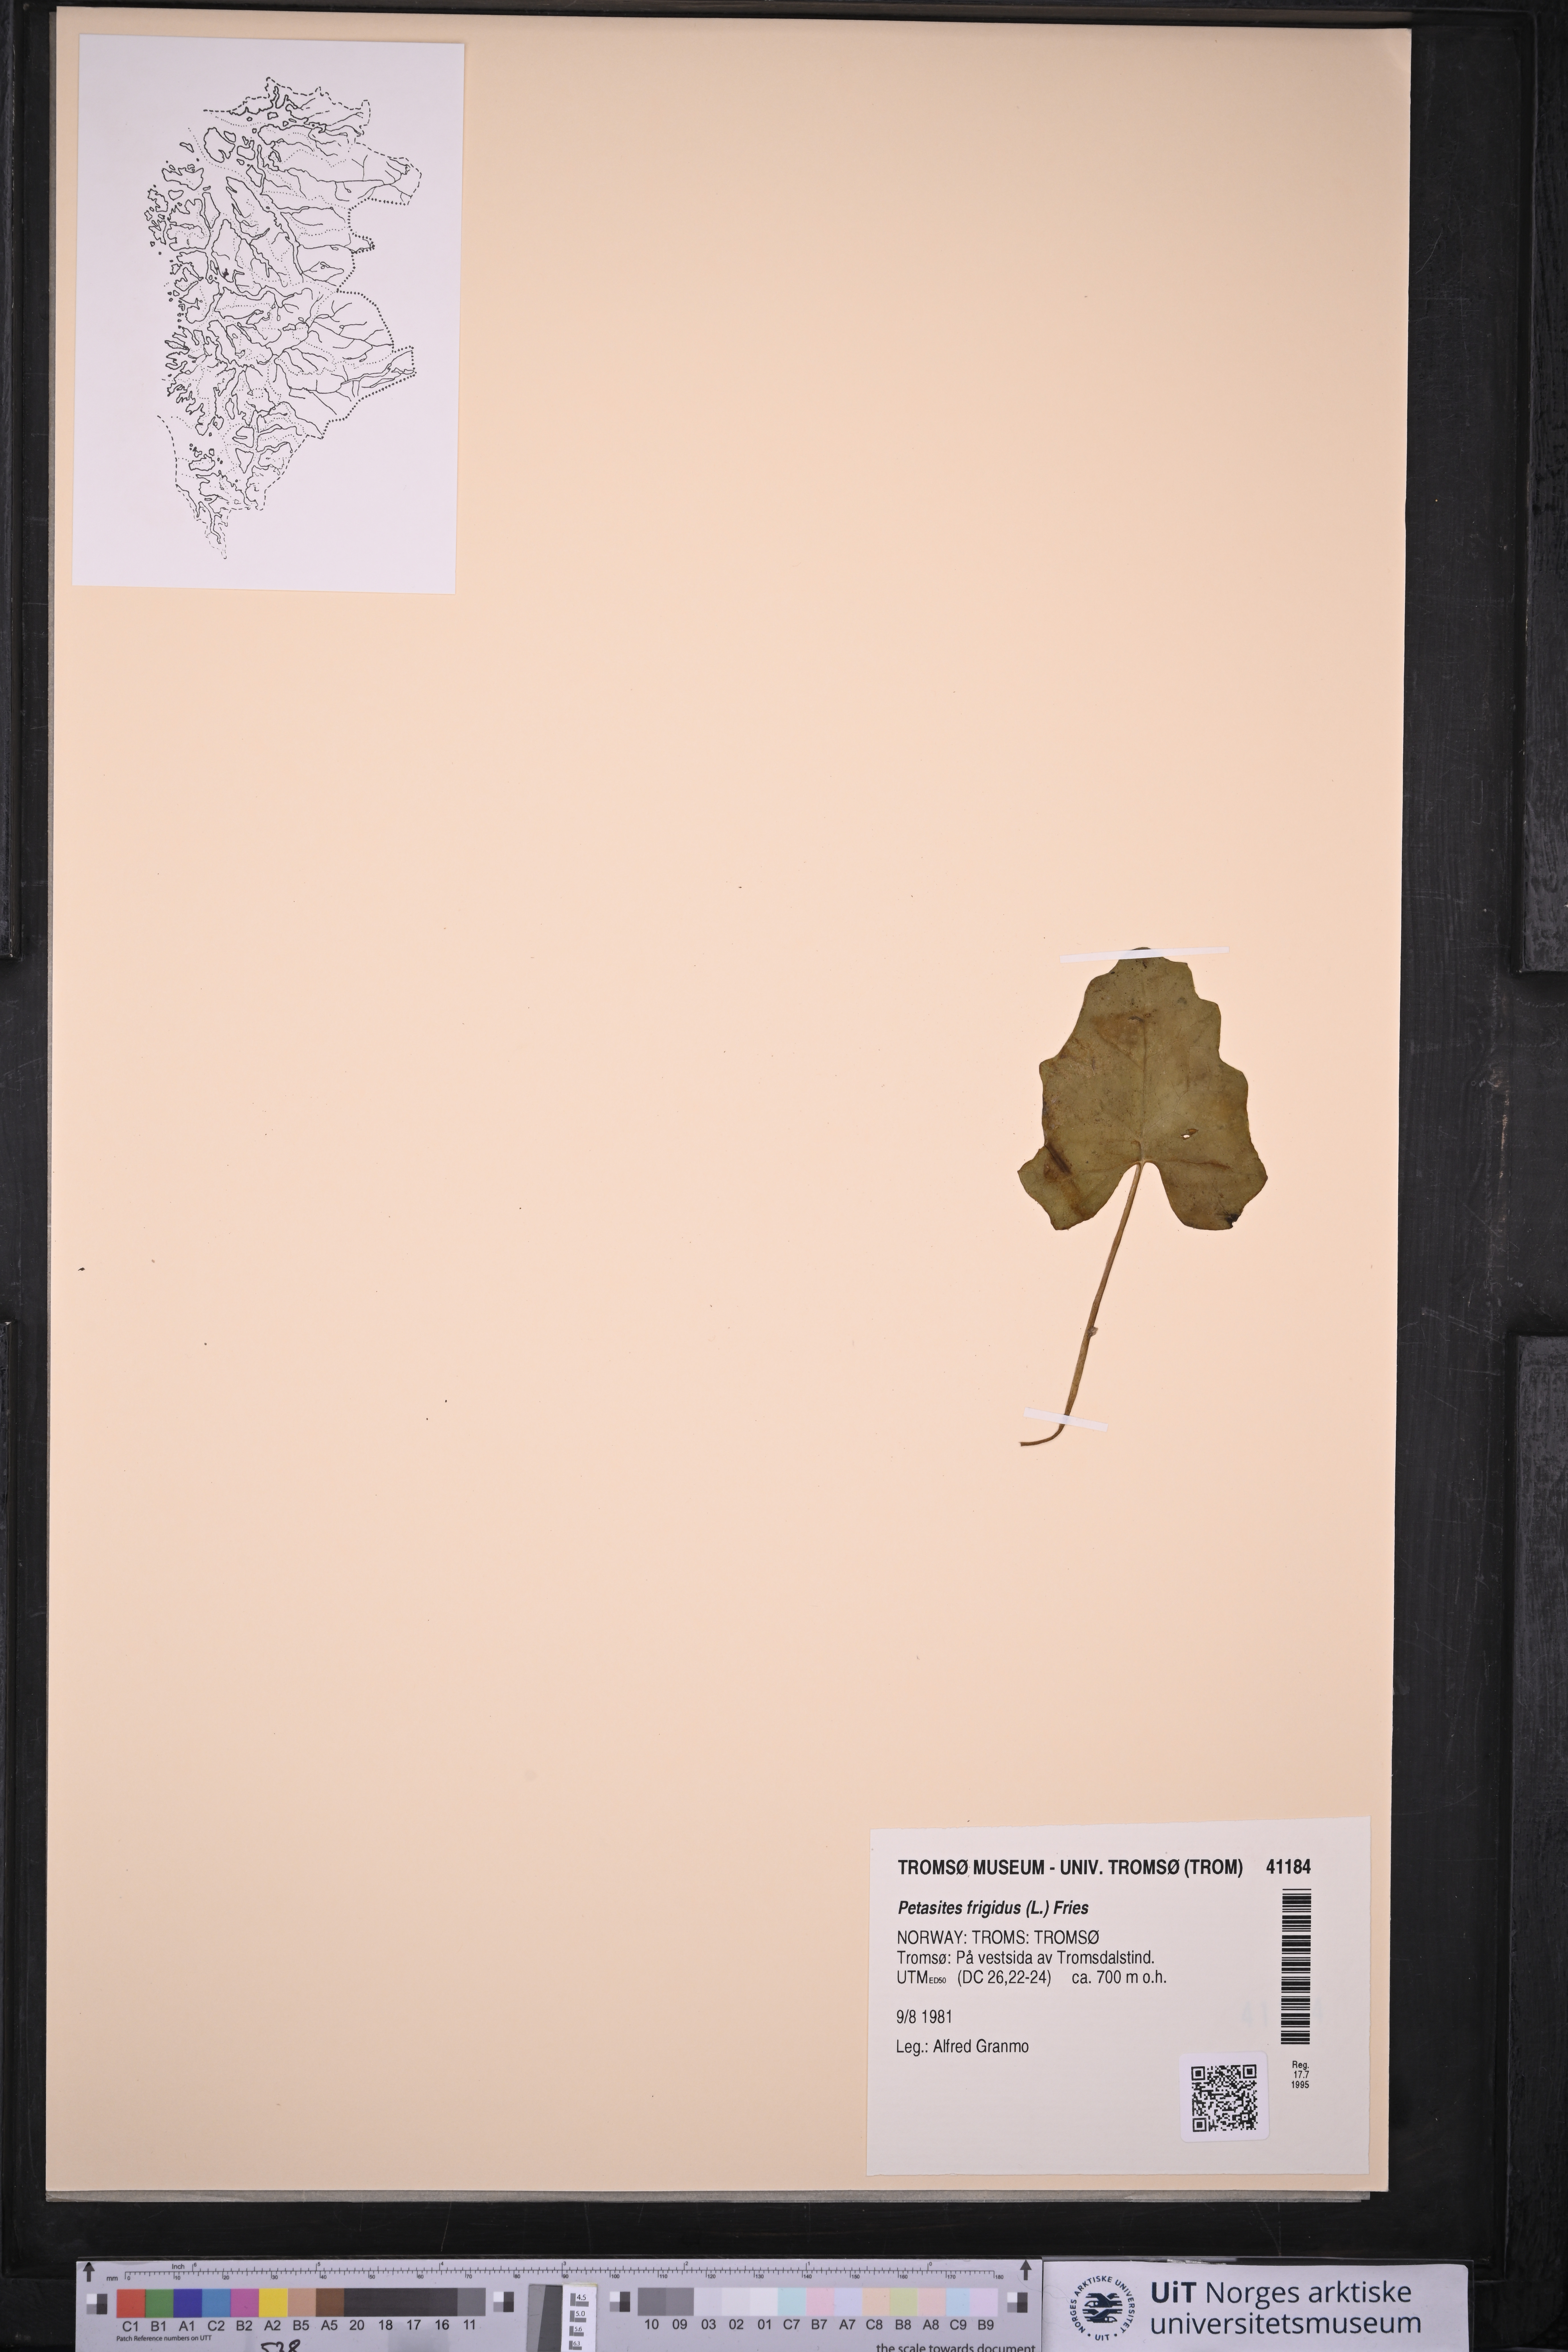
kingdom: Plantae
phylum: Tracheophyta
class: Magnoliopsida
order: Asterales
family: Asteraceae
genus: Petasites
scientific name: Petasites frigidus
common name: Arctic butterbur
